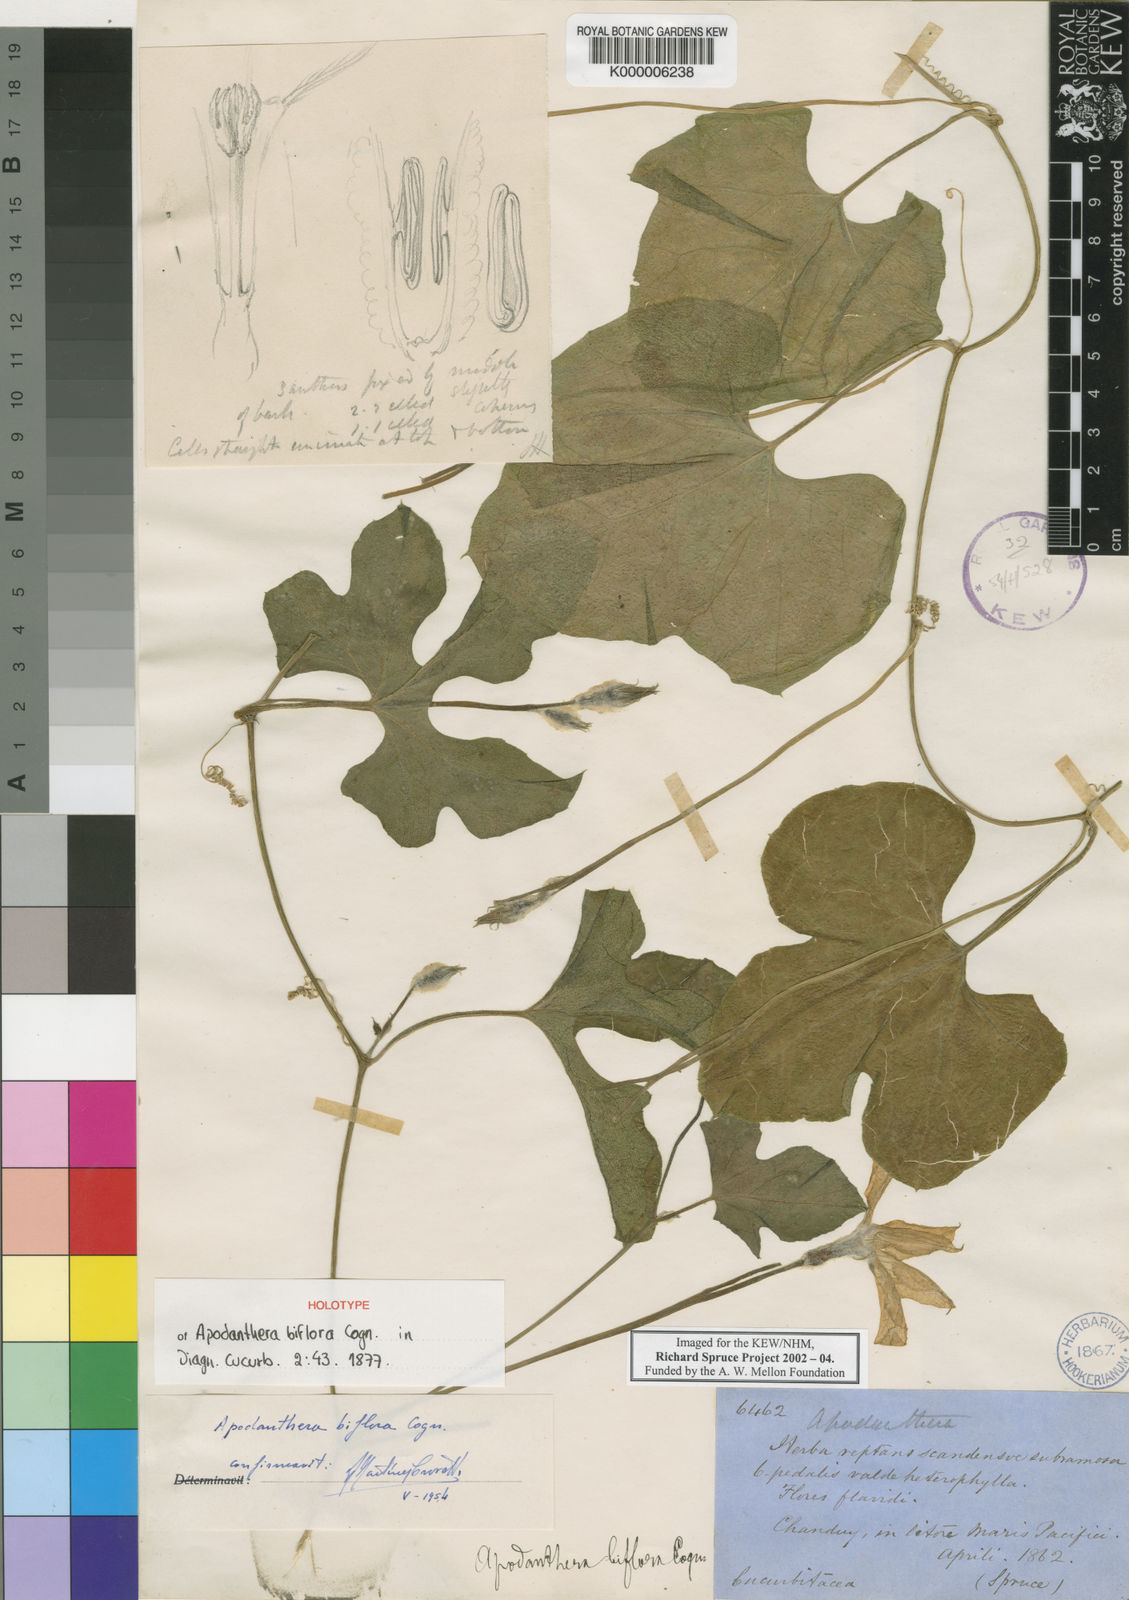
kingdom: Plantae
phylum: Tracheophyta
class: Magnoliopsida
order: Cucurbitales
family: Cucurbitaceae
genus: Apodanthera
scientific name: Apodanthera biflora
